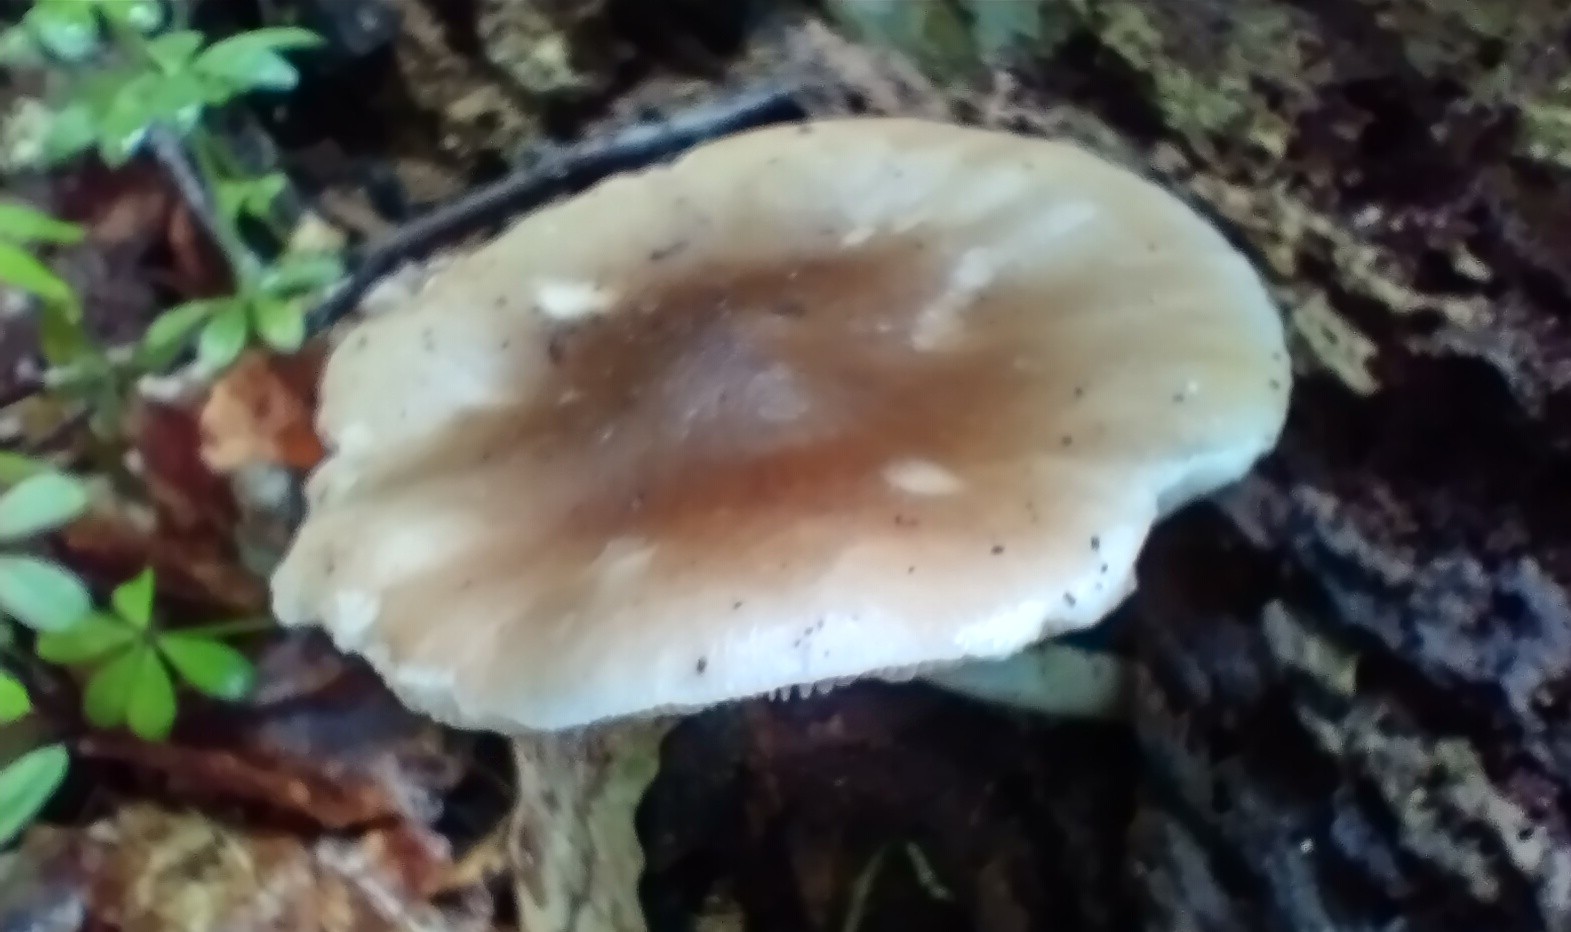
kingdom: Fungi
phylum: Basidiomycota
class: Agaricomycetes
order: Agaricales
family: Pluteaceae
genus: Pluteus
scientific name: Pluteus
